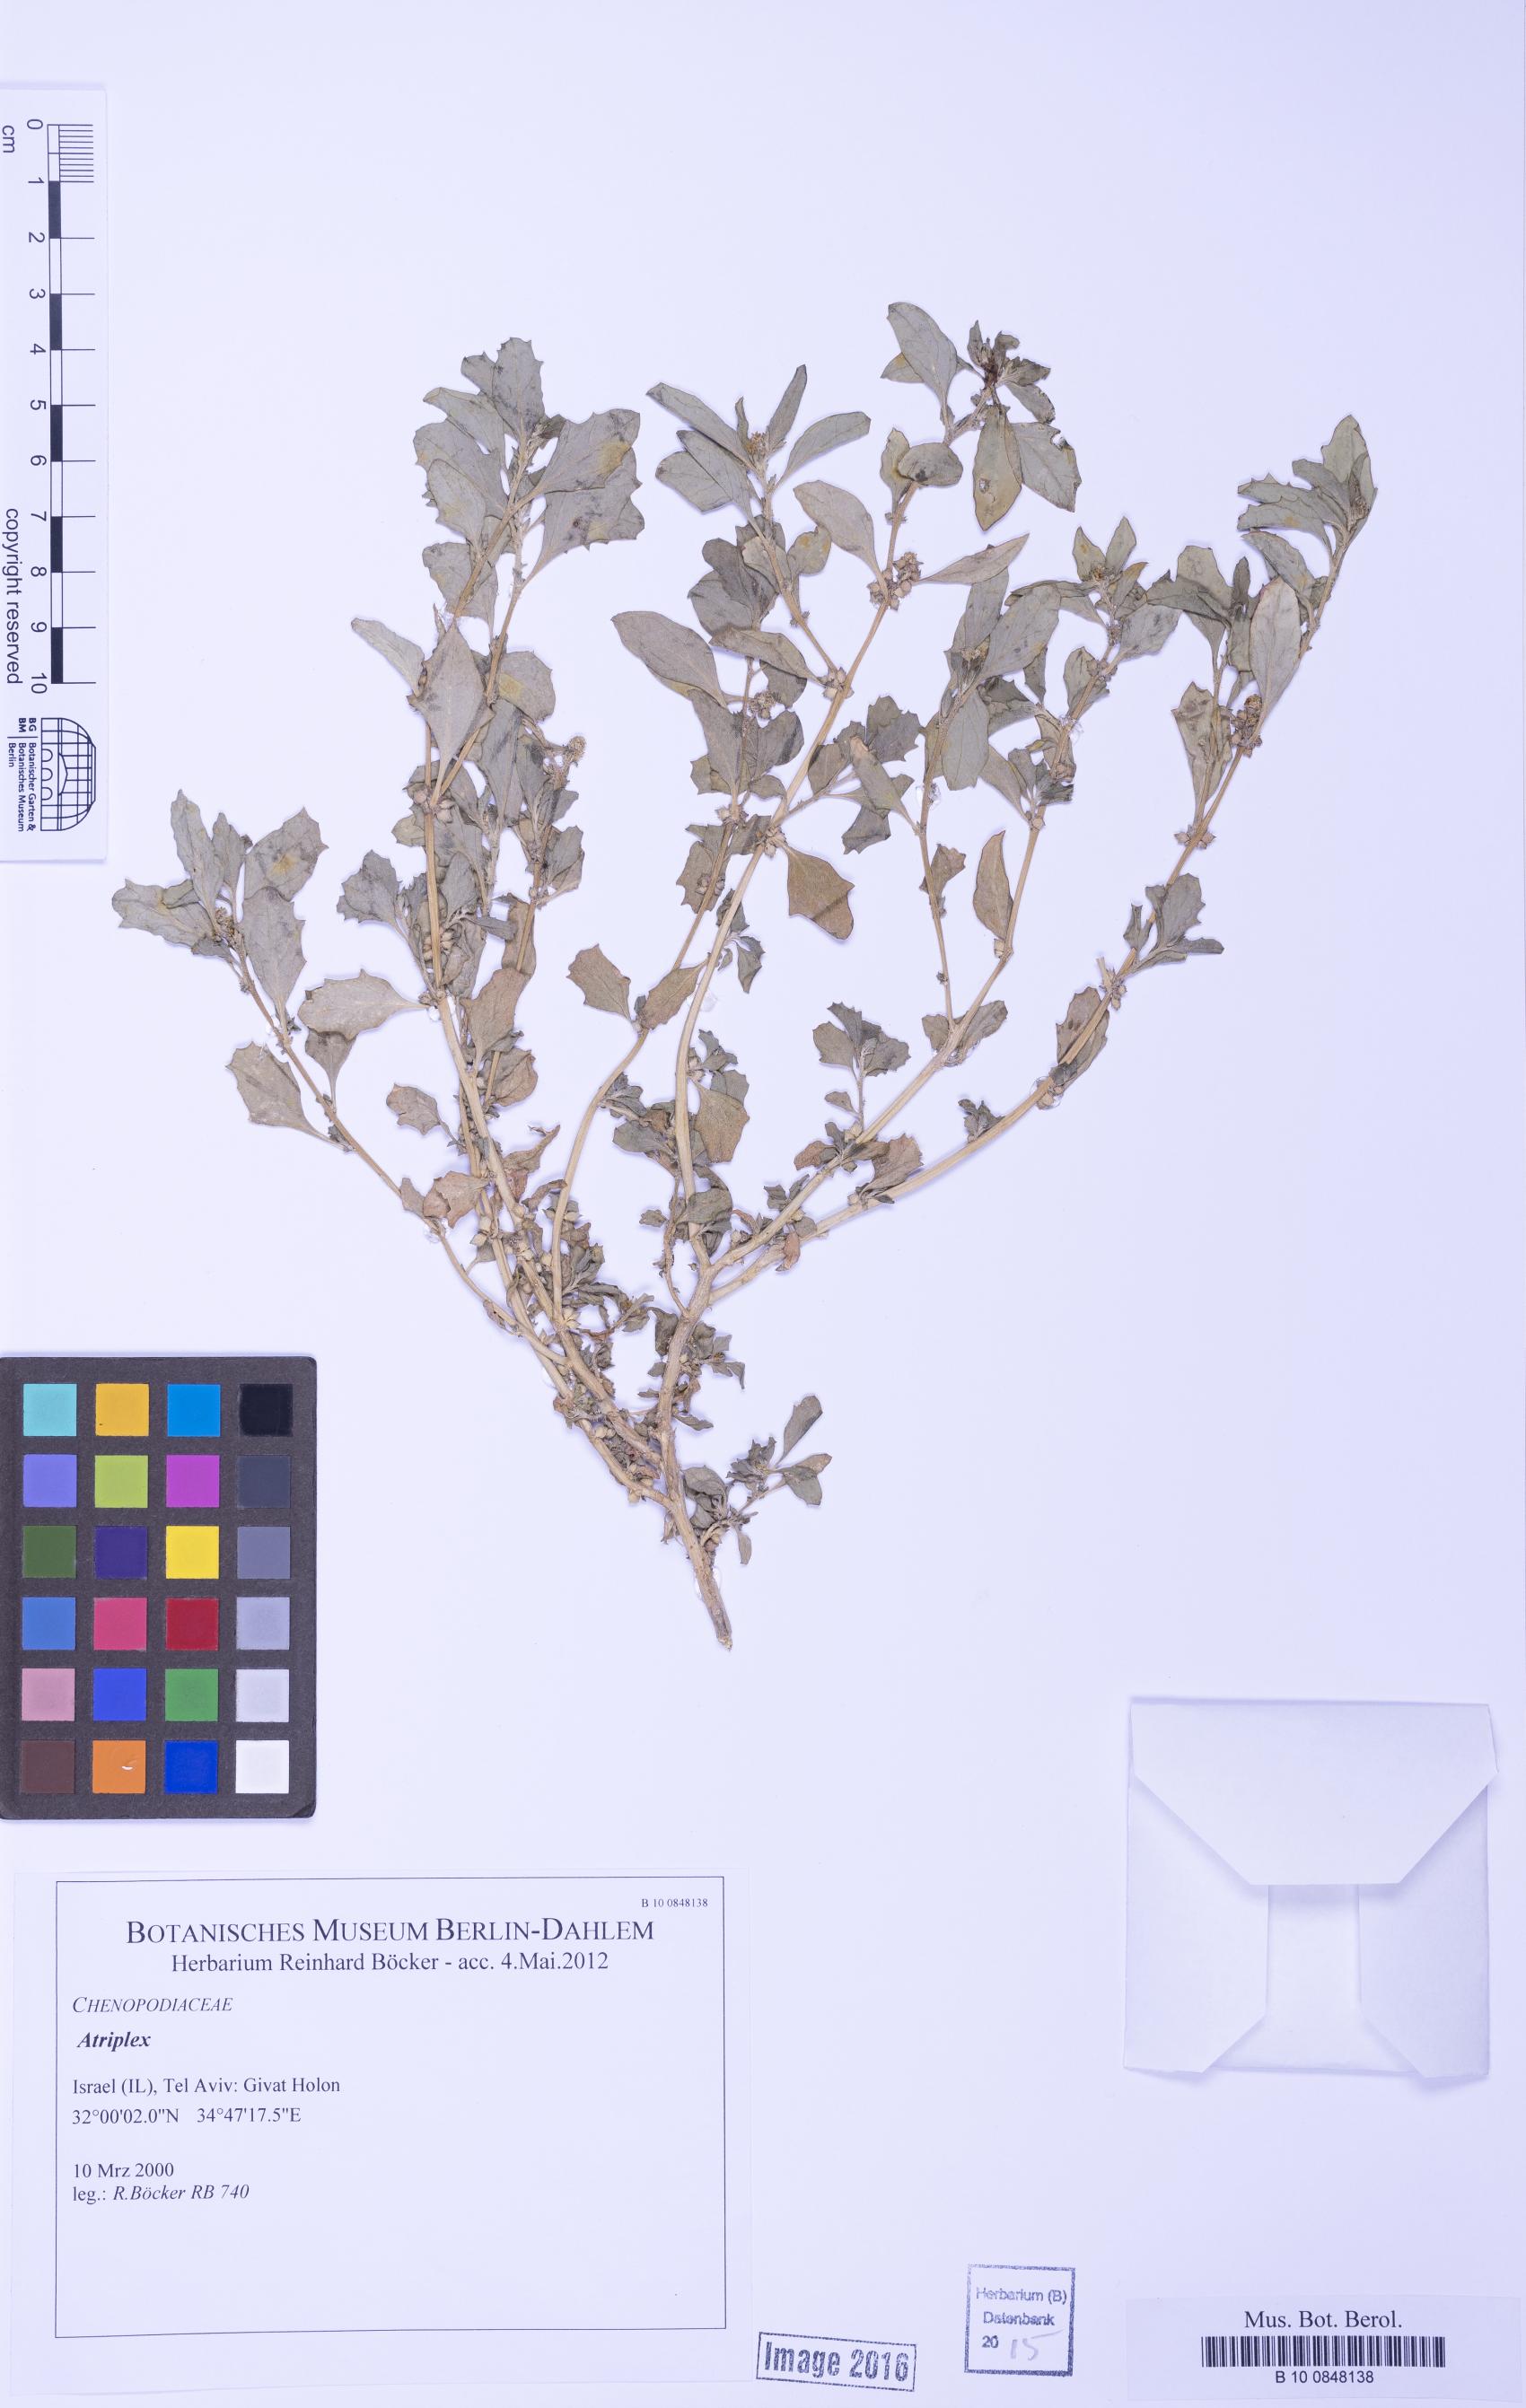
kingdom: Plantae
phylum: Tracheophyta
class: Magnoliopsida
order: Caryophyllales
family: Amaranthaceae
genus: Atriplex
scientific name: Atriplex
